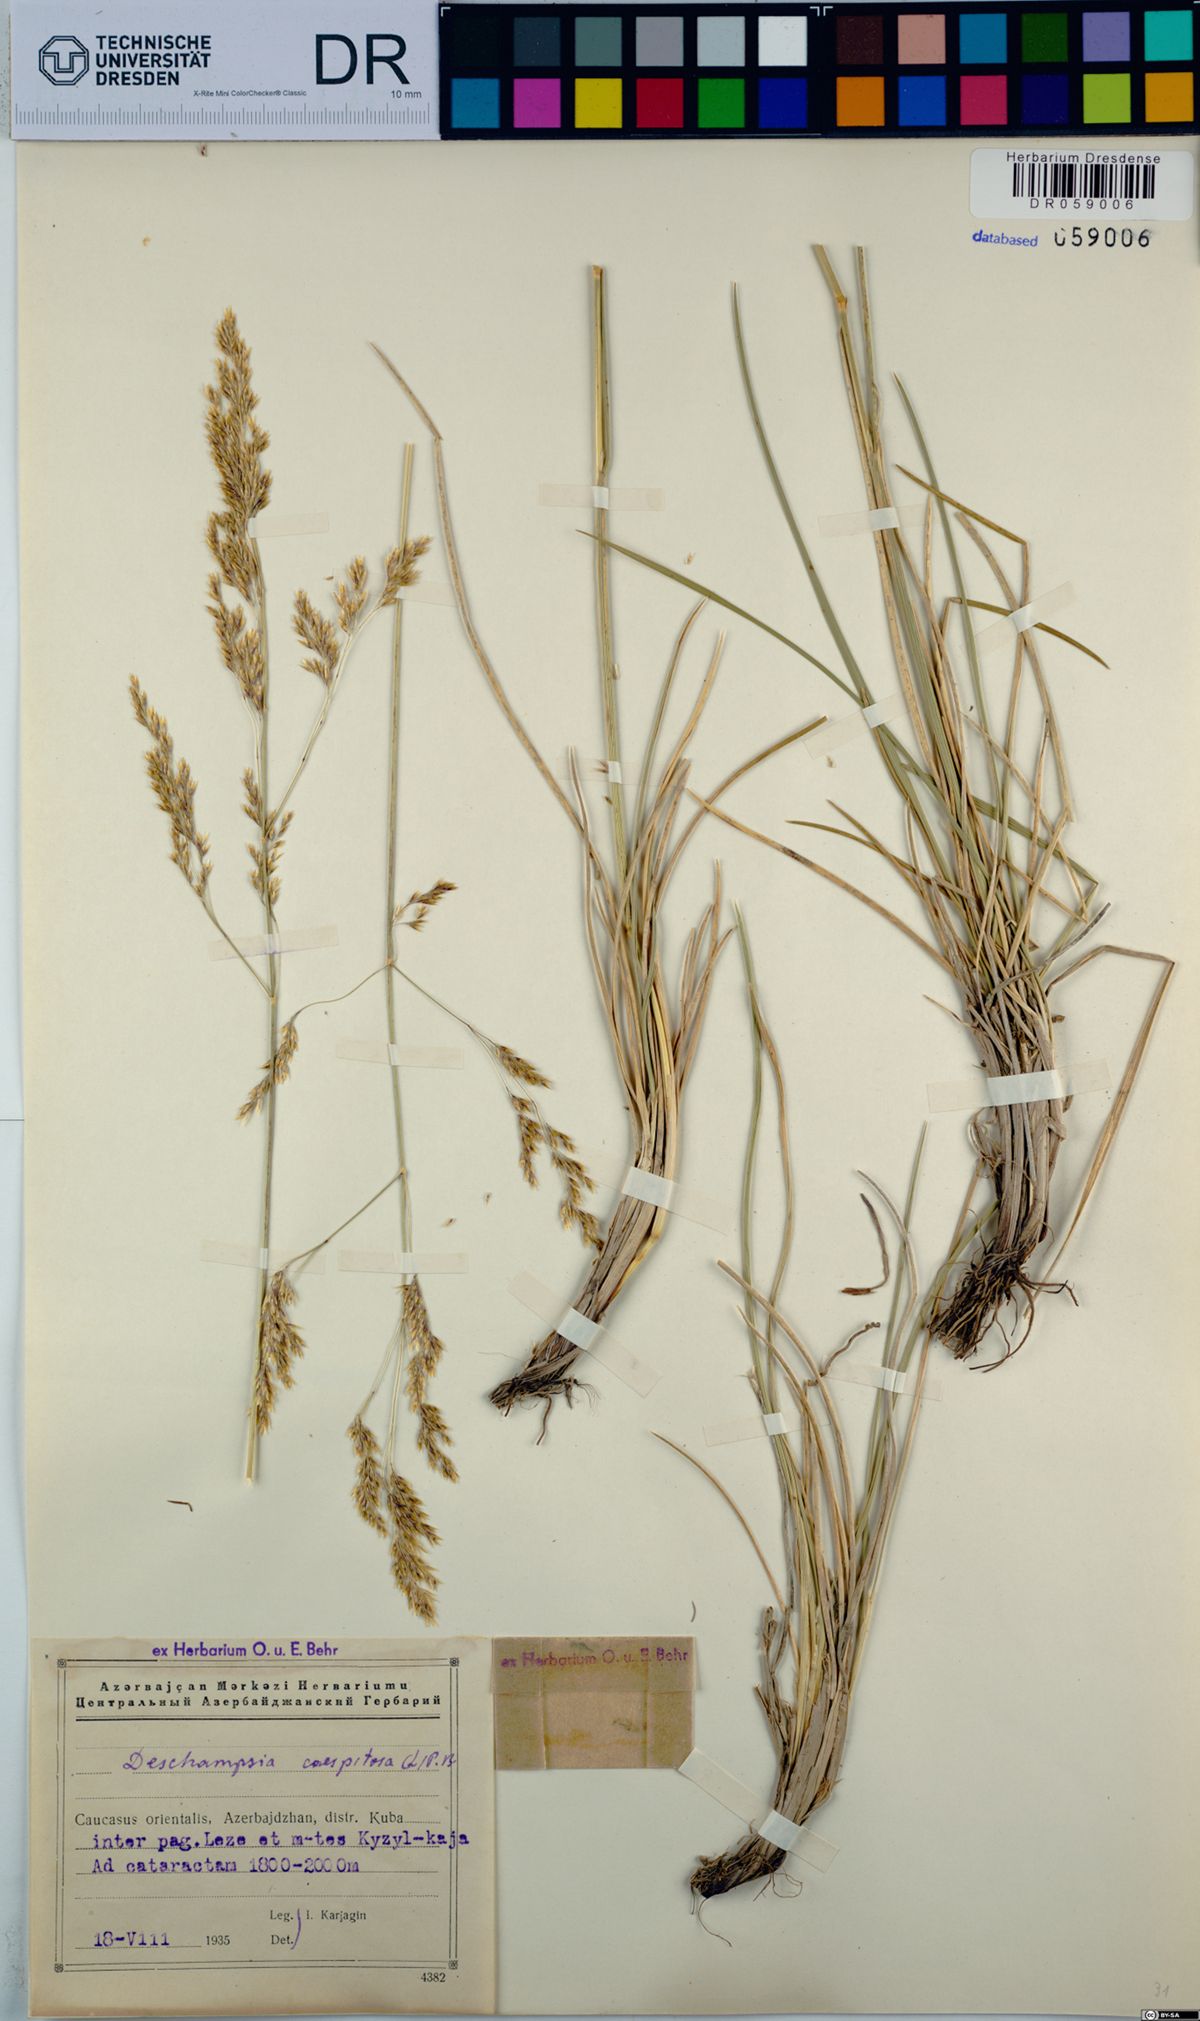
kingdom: Plantae
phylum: Tracheophyta
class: Liliopsida
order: Poales
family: Poaceae
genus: Deschampsia
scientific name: Deschampsia cespitosa
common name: Tufted hair-grass
